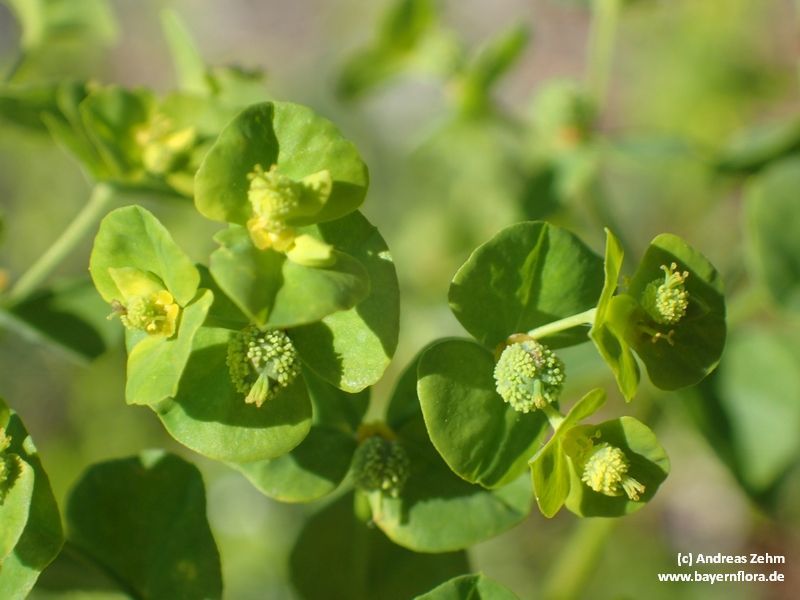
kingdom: Plantae
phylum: Tracheophyta
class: Magnoliopsida
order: Malpighiales
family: Euphorbiaceae
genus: Euphorbia
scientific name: Euphorbia stricta
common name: Upright spurge
